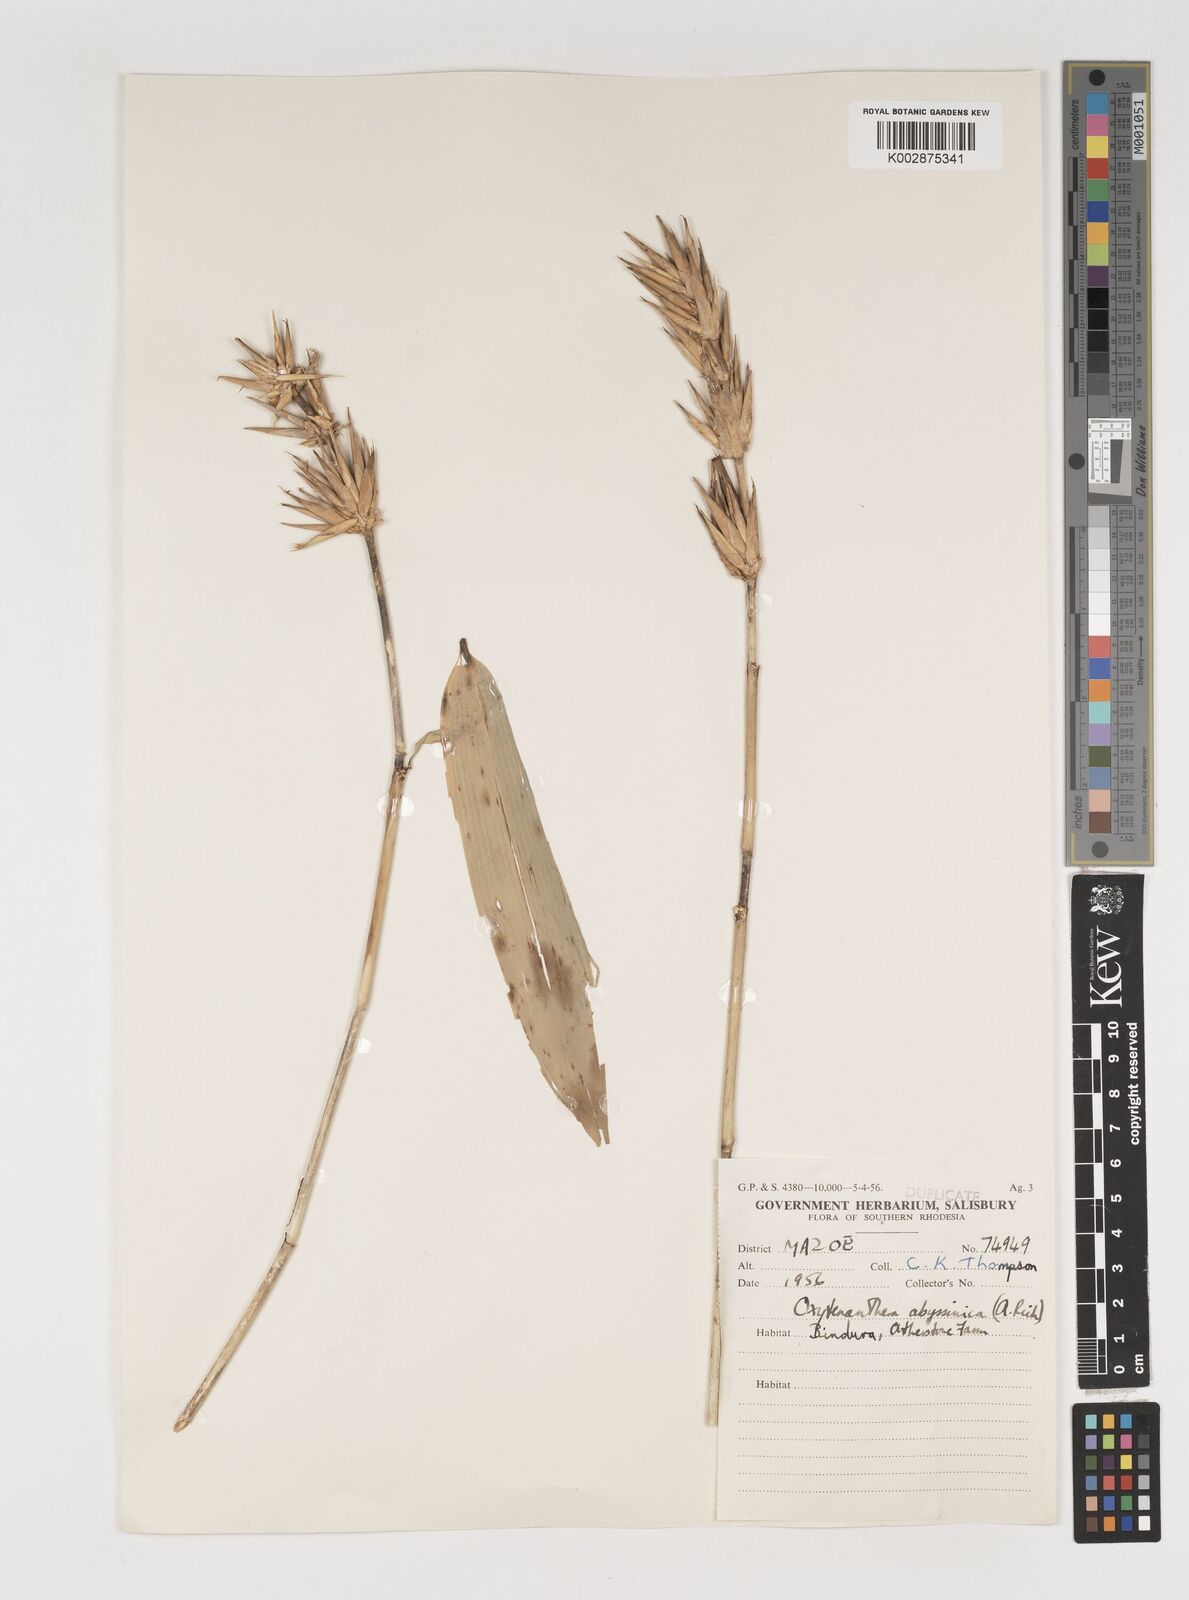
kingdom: Plantae
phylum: Tracheophyta
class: Liliopsida
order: Poales
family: Poaceae
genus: Oxytenanthera
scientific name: Oxytenanthera abyssinica
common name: Wine bamboo
